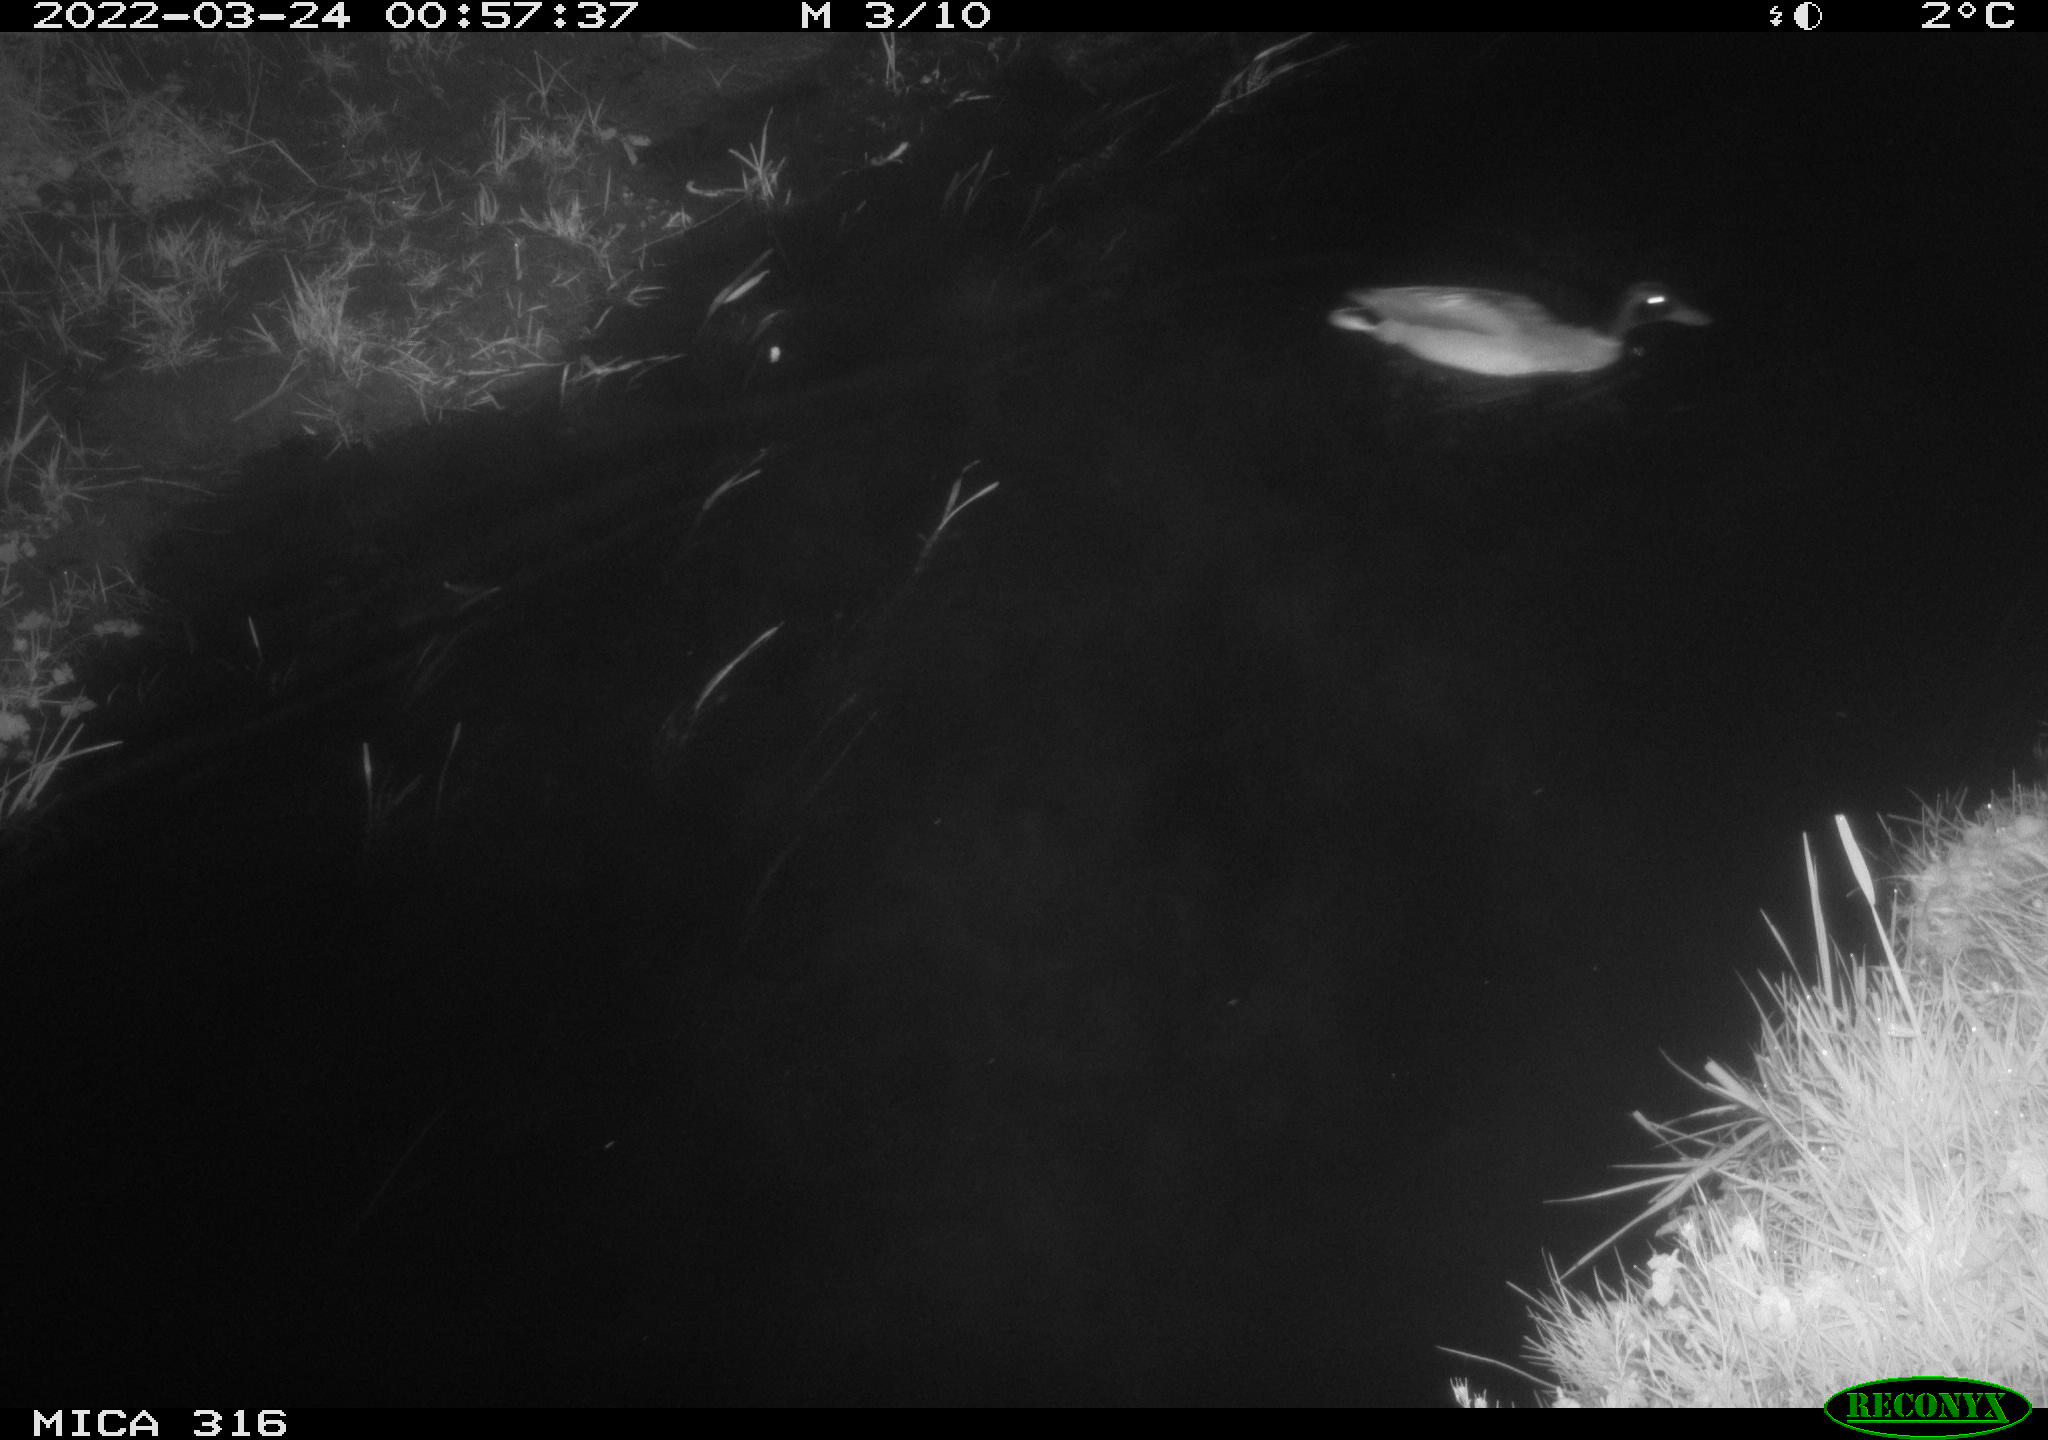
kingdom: Animalia
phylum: Chordata
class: Aves
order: Anseriformes
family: Anatidae
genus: Anas
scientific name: Anas platyrhynchos
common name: Mallard
